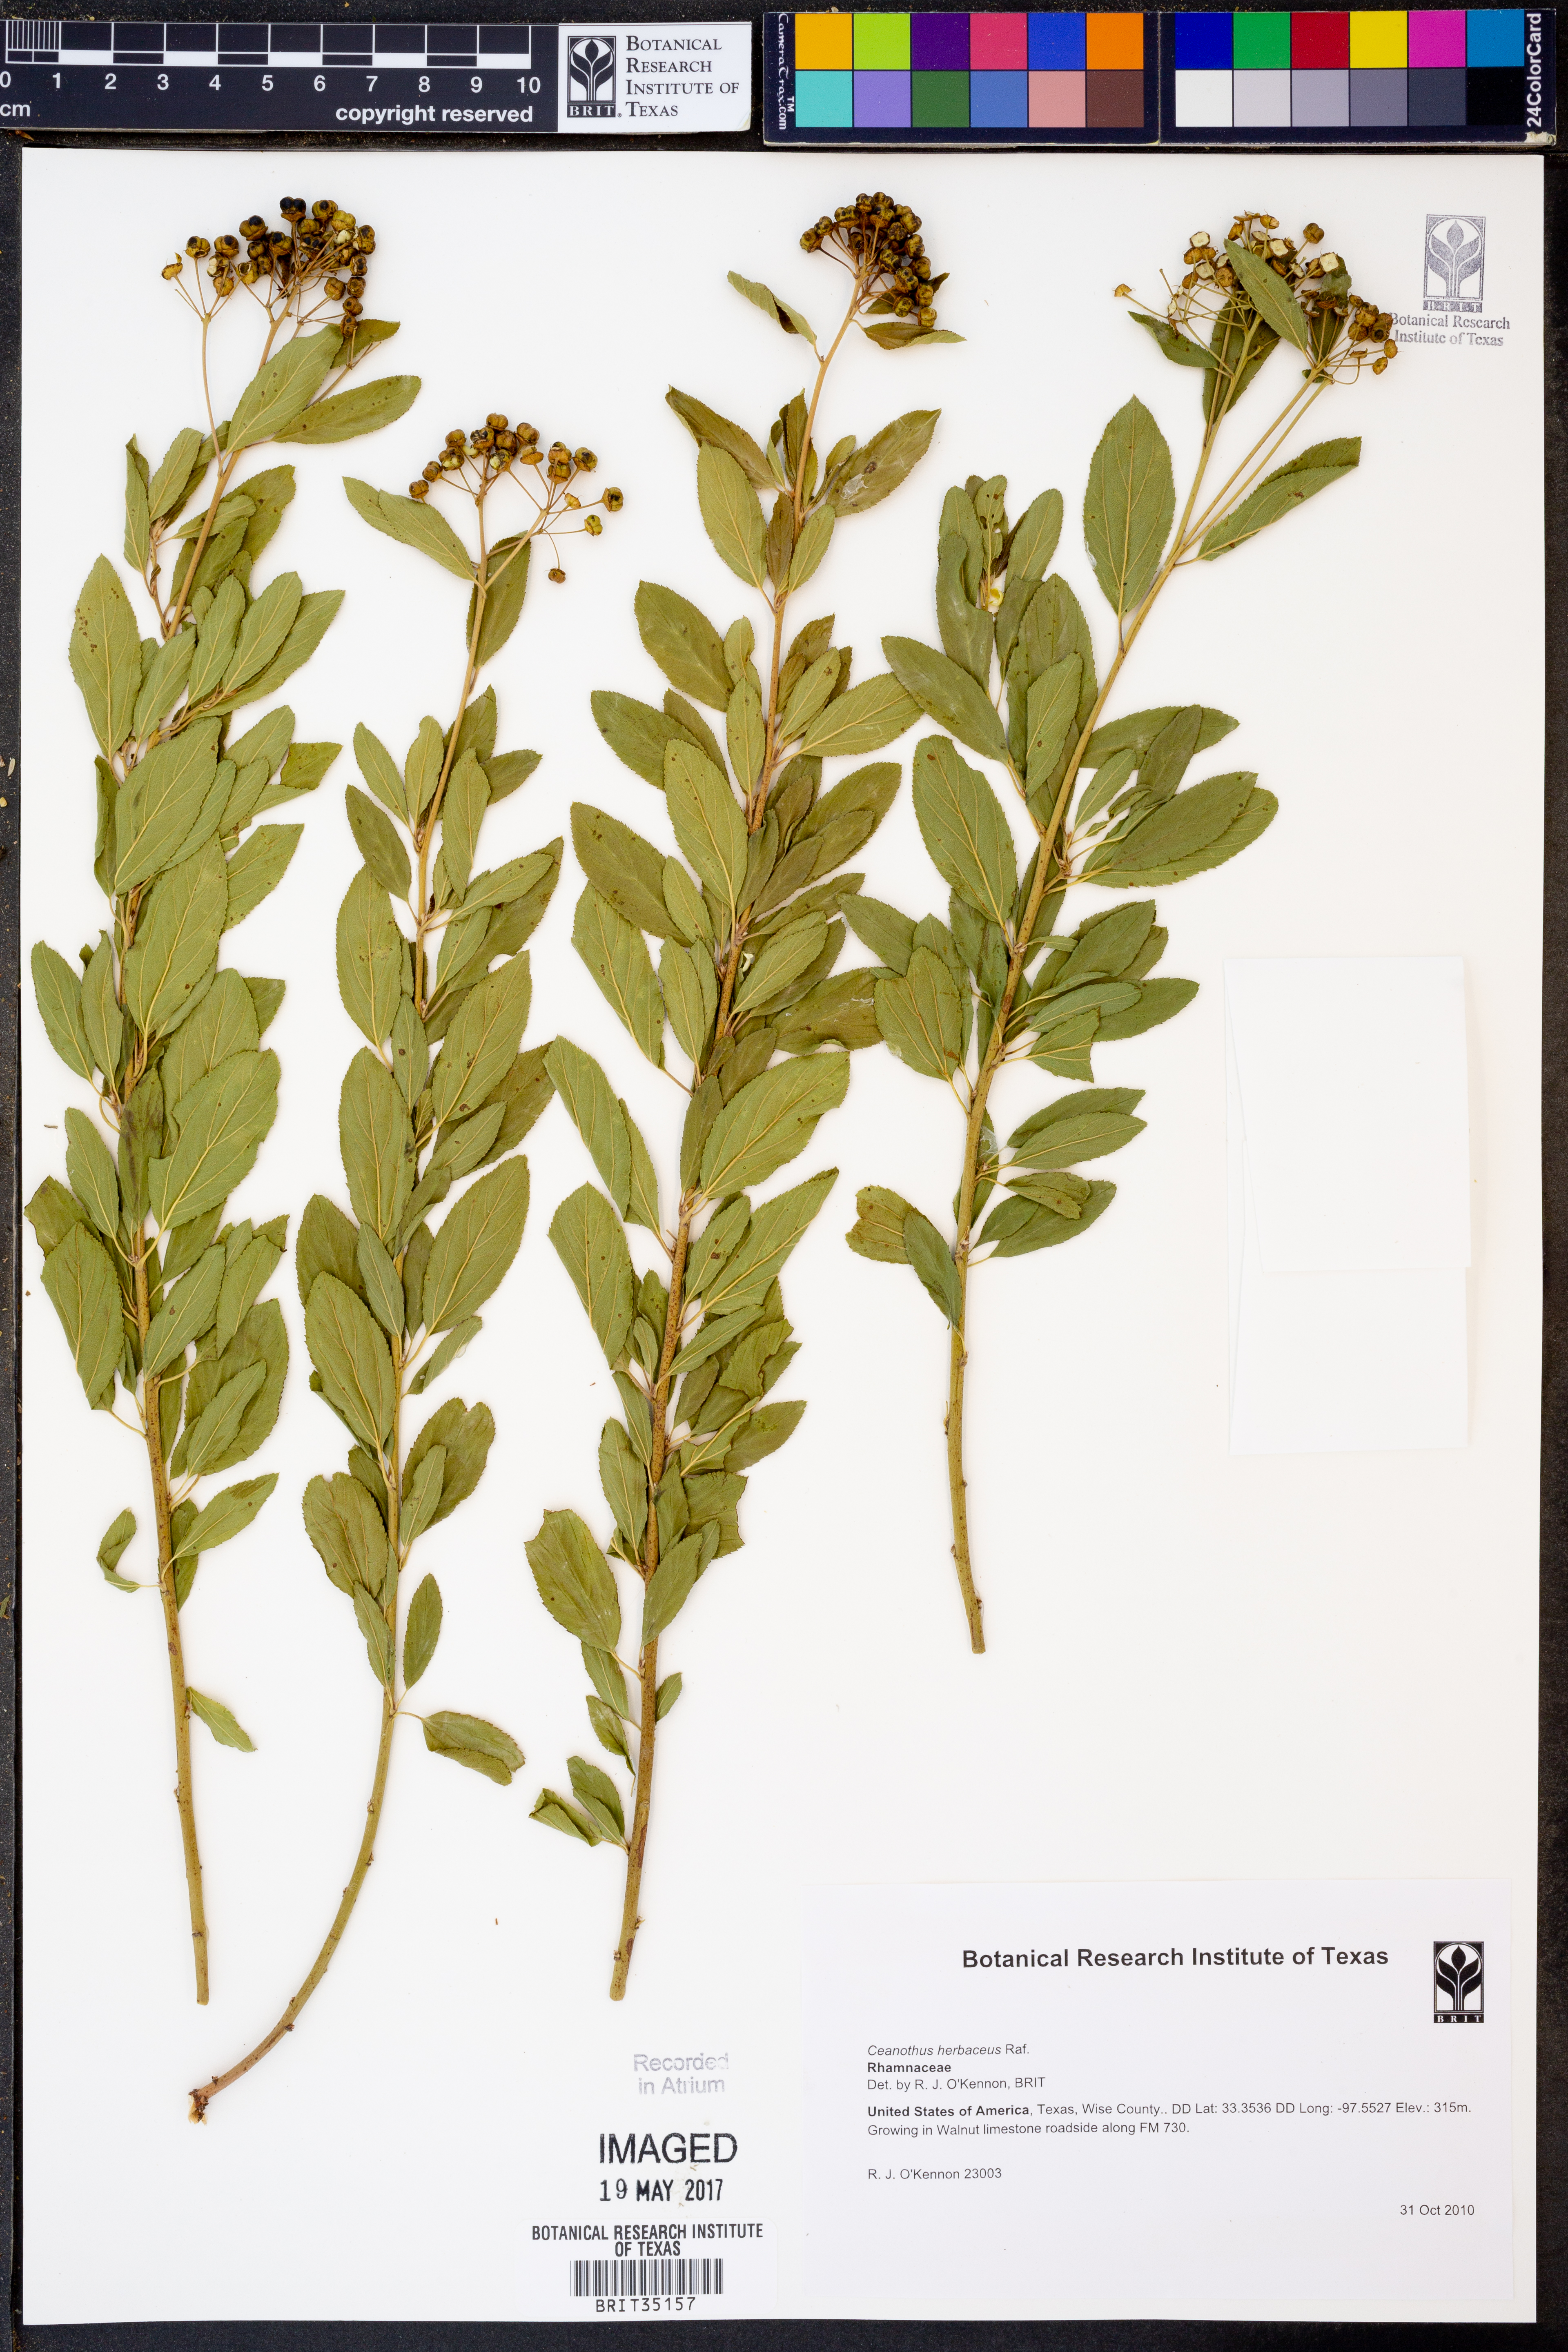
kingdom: Plantae
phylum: Tracheophyta
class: Magnoliopsida
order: Rosales
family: Rhamnaceae
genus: Ceanothus
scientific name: Ceanothus herbaceus
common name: Inland ceanothus
